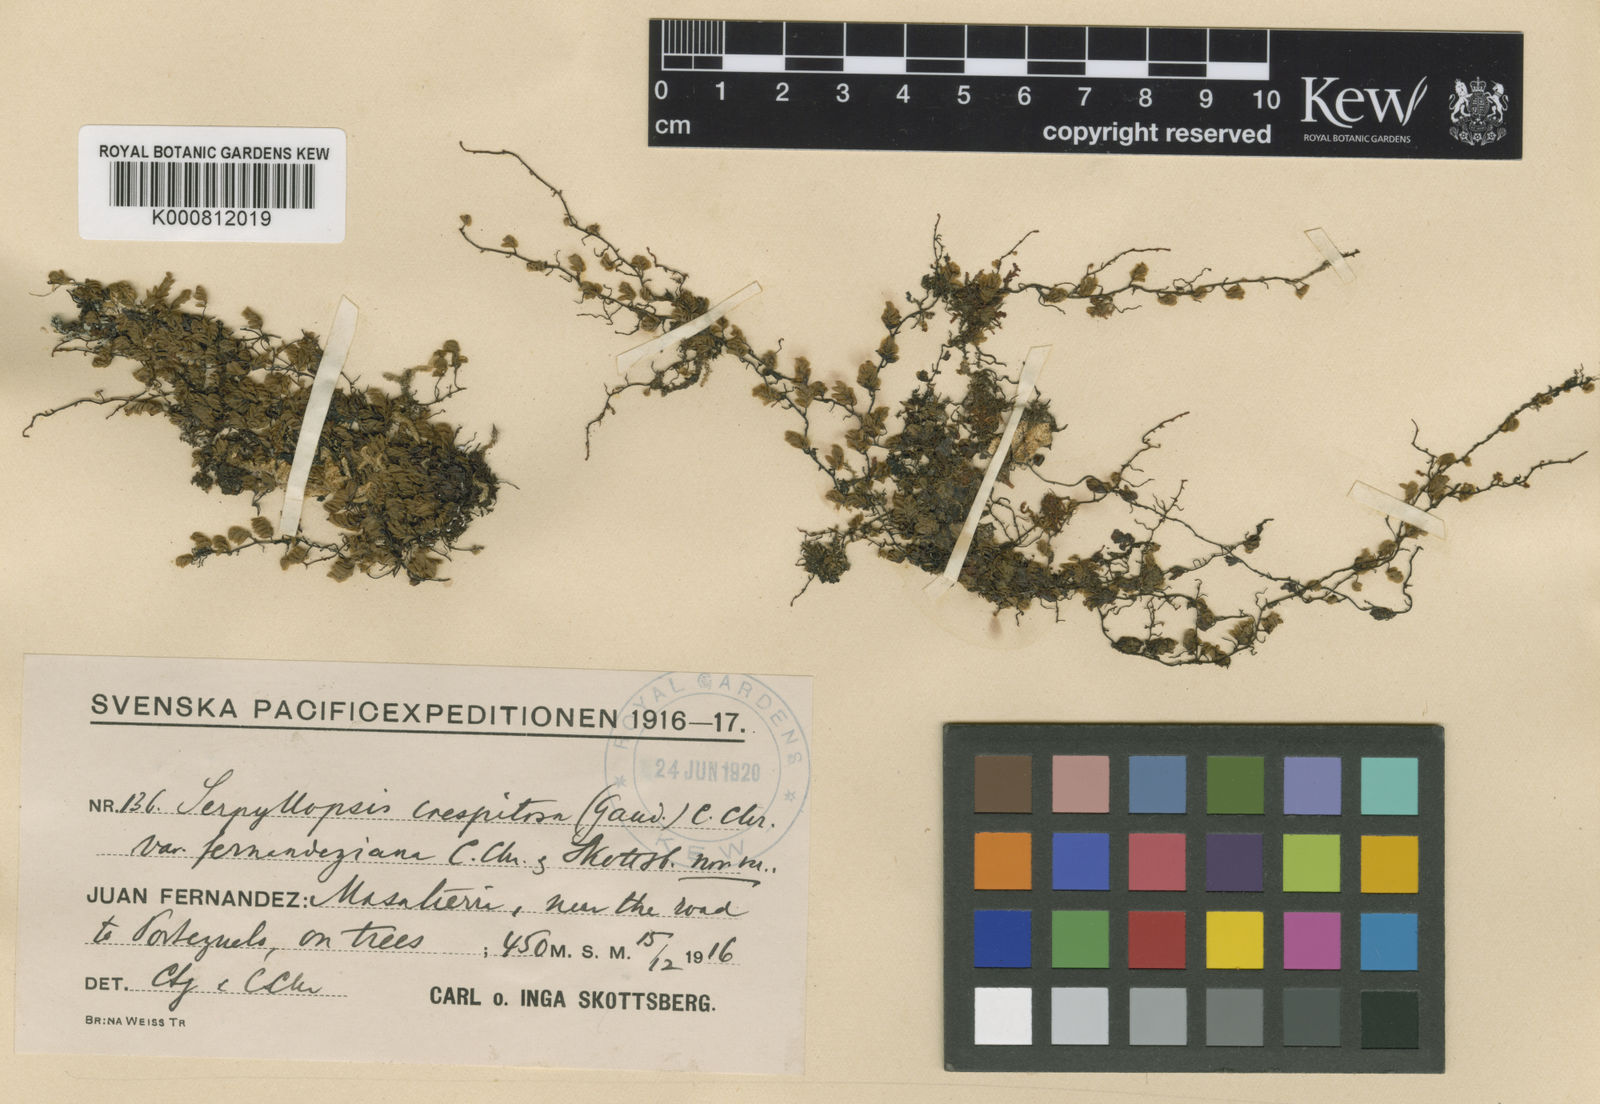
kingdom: Plantae
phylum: Tracheophyta
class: Polypodiopsida
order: Hymenophyllales
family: Hymenophyllaceae
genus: Hymenophyllum
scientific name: Hymenophyllum caespitosum
